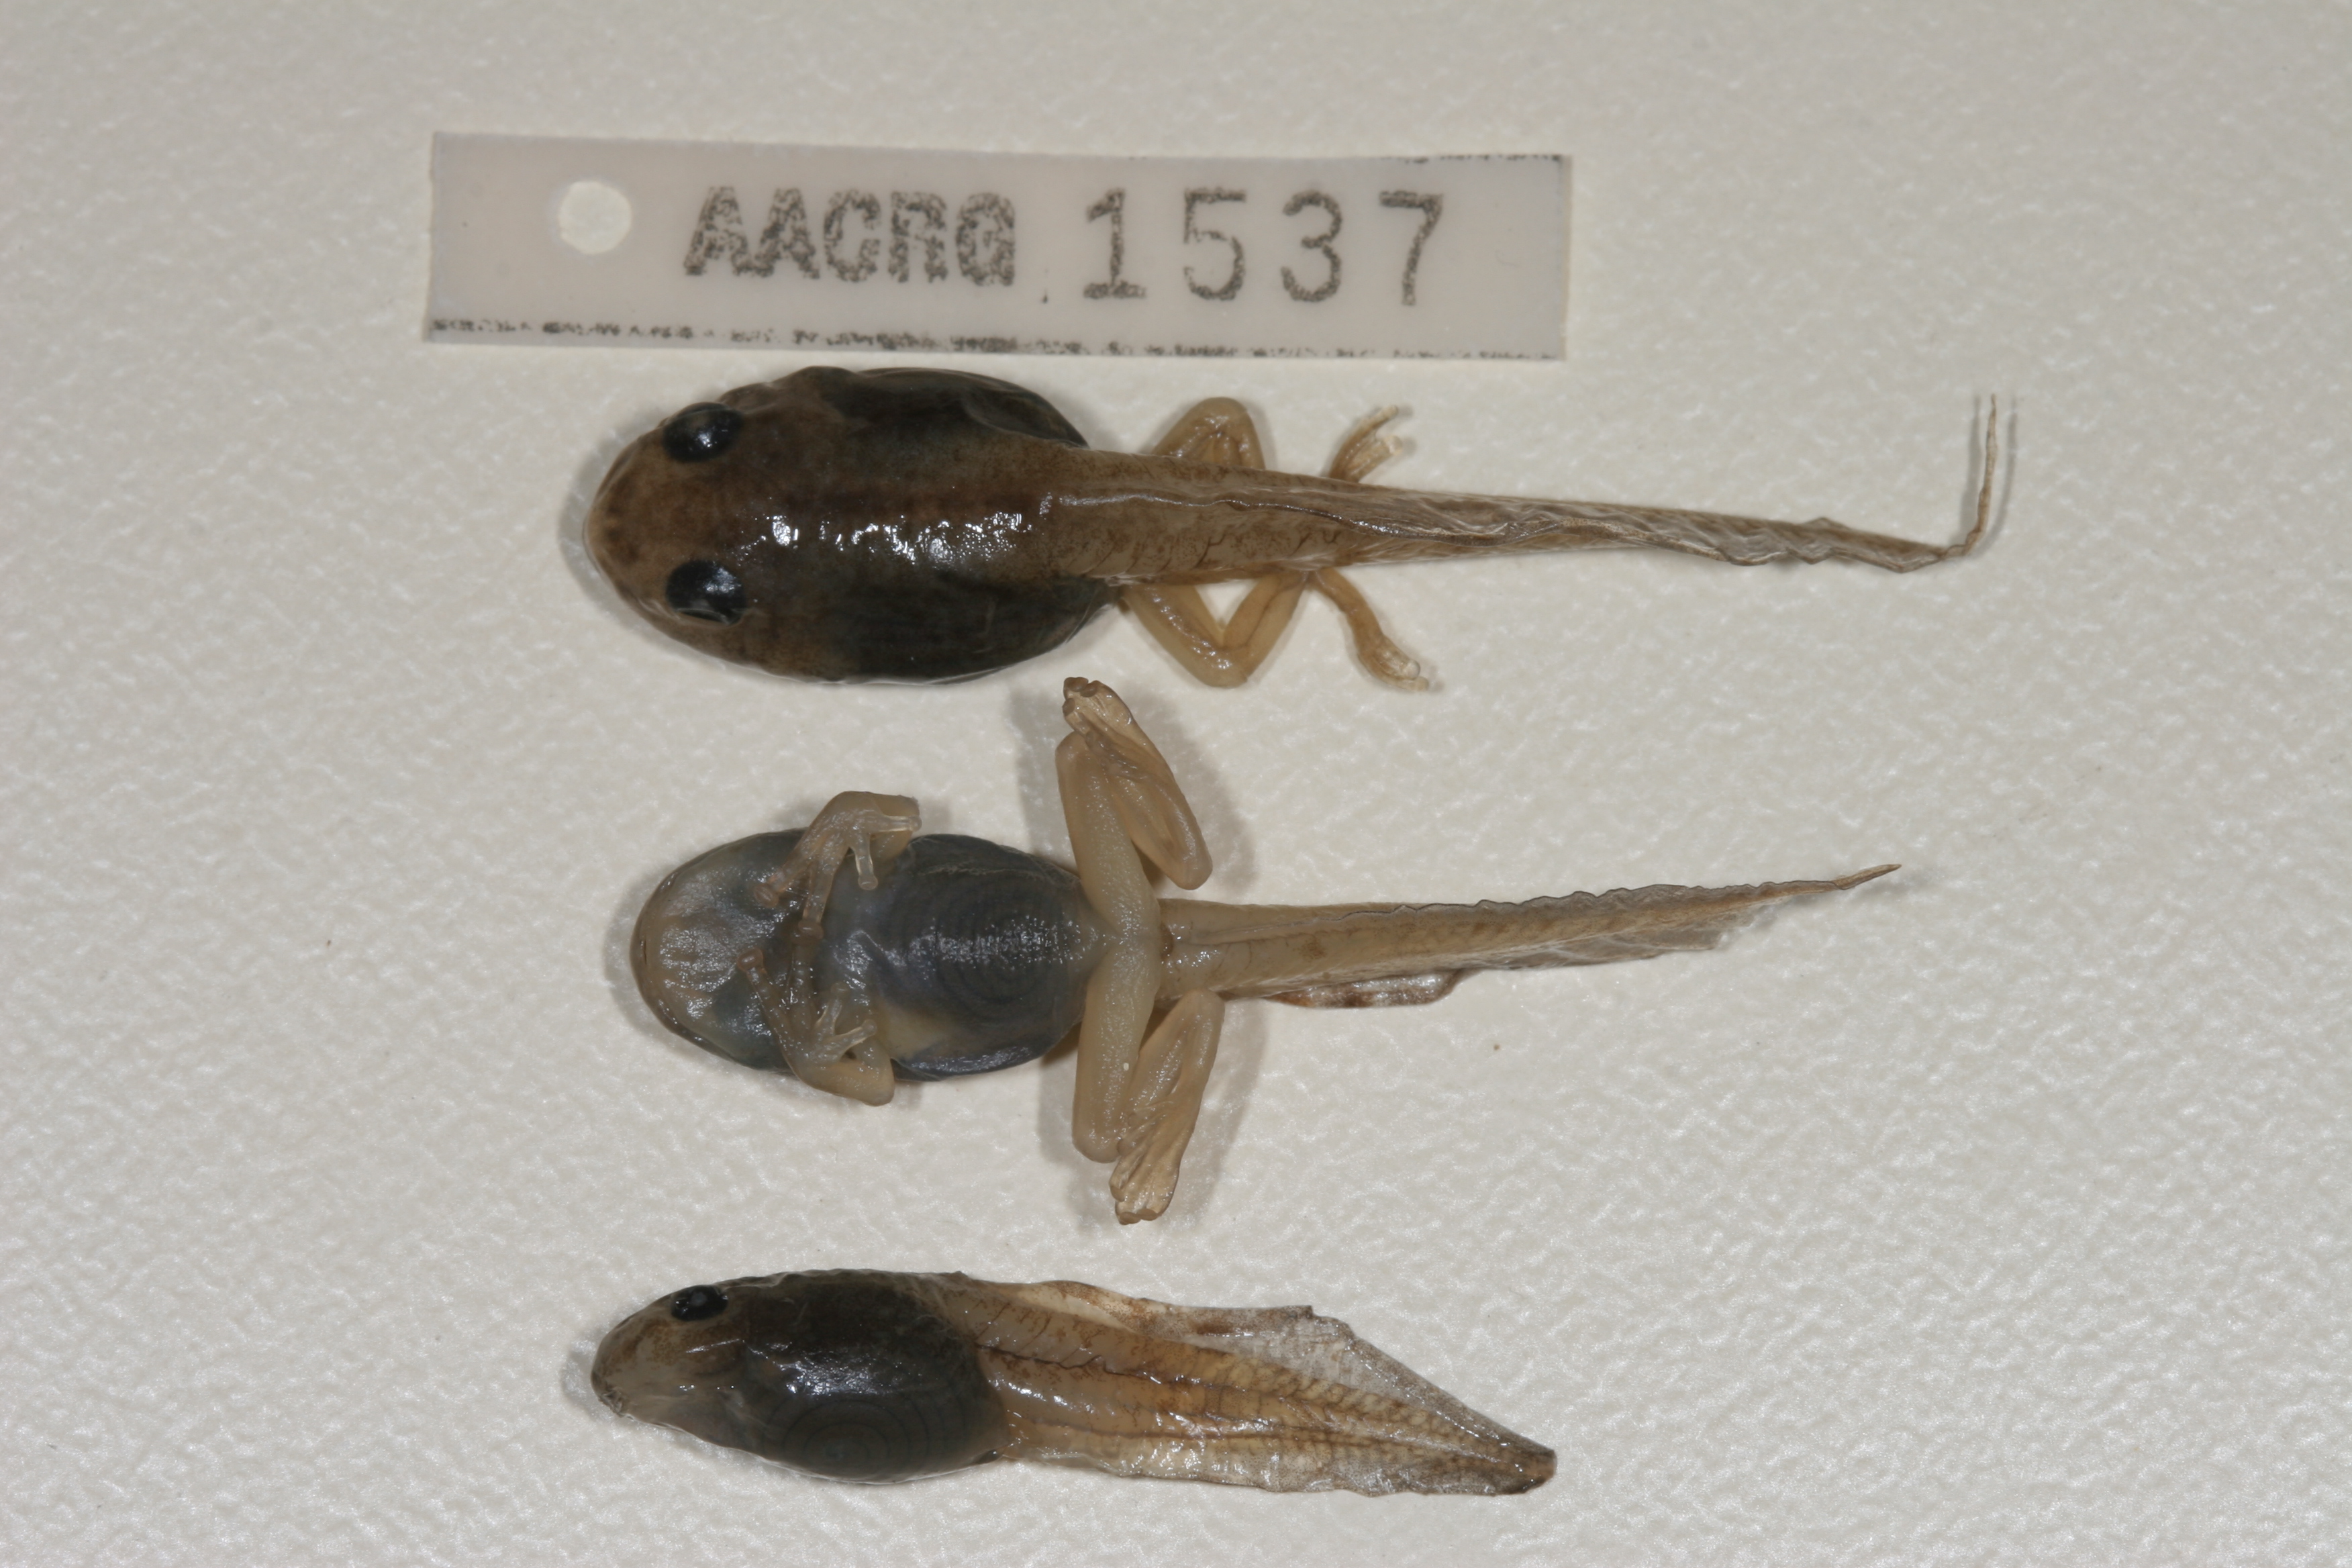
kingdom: Animalia
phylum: Chordata
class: Amphibia
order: Anura
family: Rhacophoridae
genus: Chiromantis
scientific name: Chiromantis xerampelina
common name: African gray treefrog
